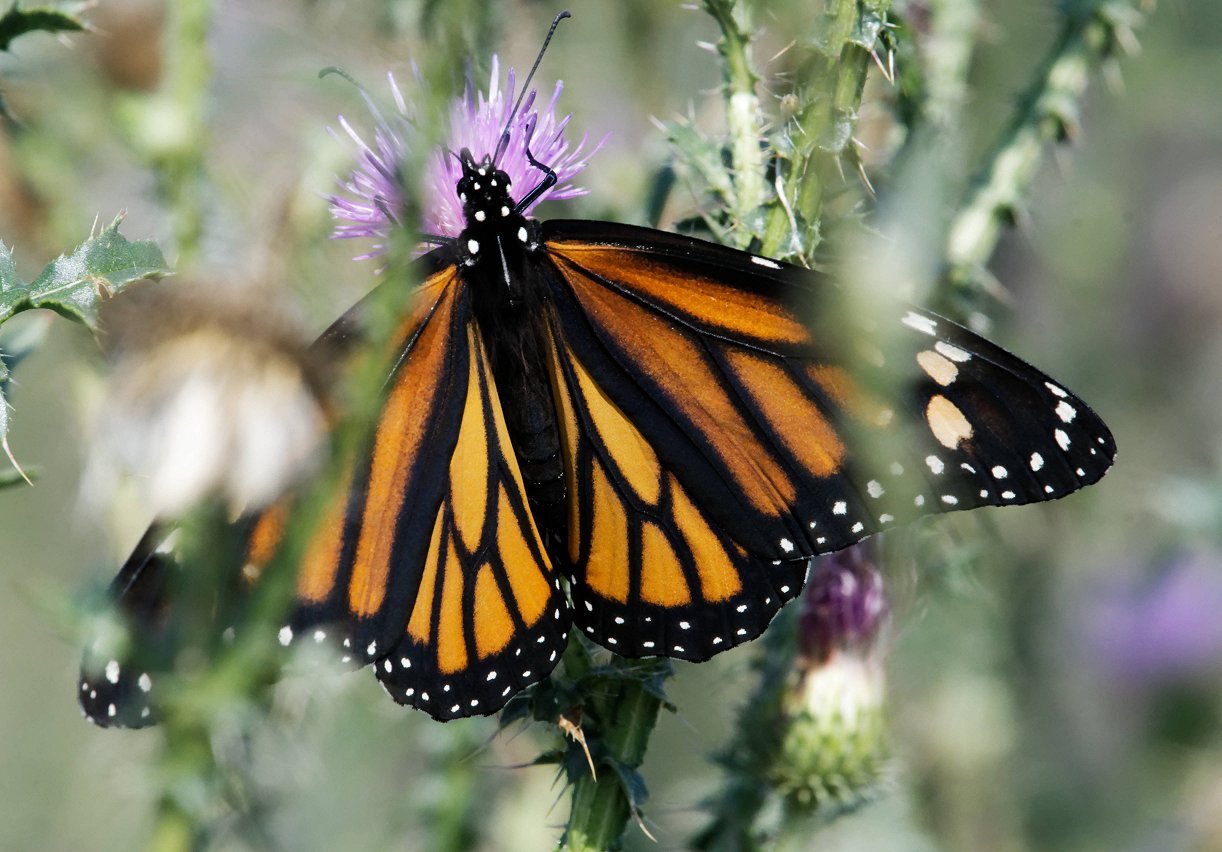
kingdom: Animalia
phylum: Arthropoda
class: Insecta
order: Lepidoptera
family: Nymphalidae
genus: Danaus
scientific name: Danaus plexippus
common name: Monarch
